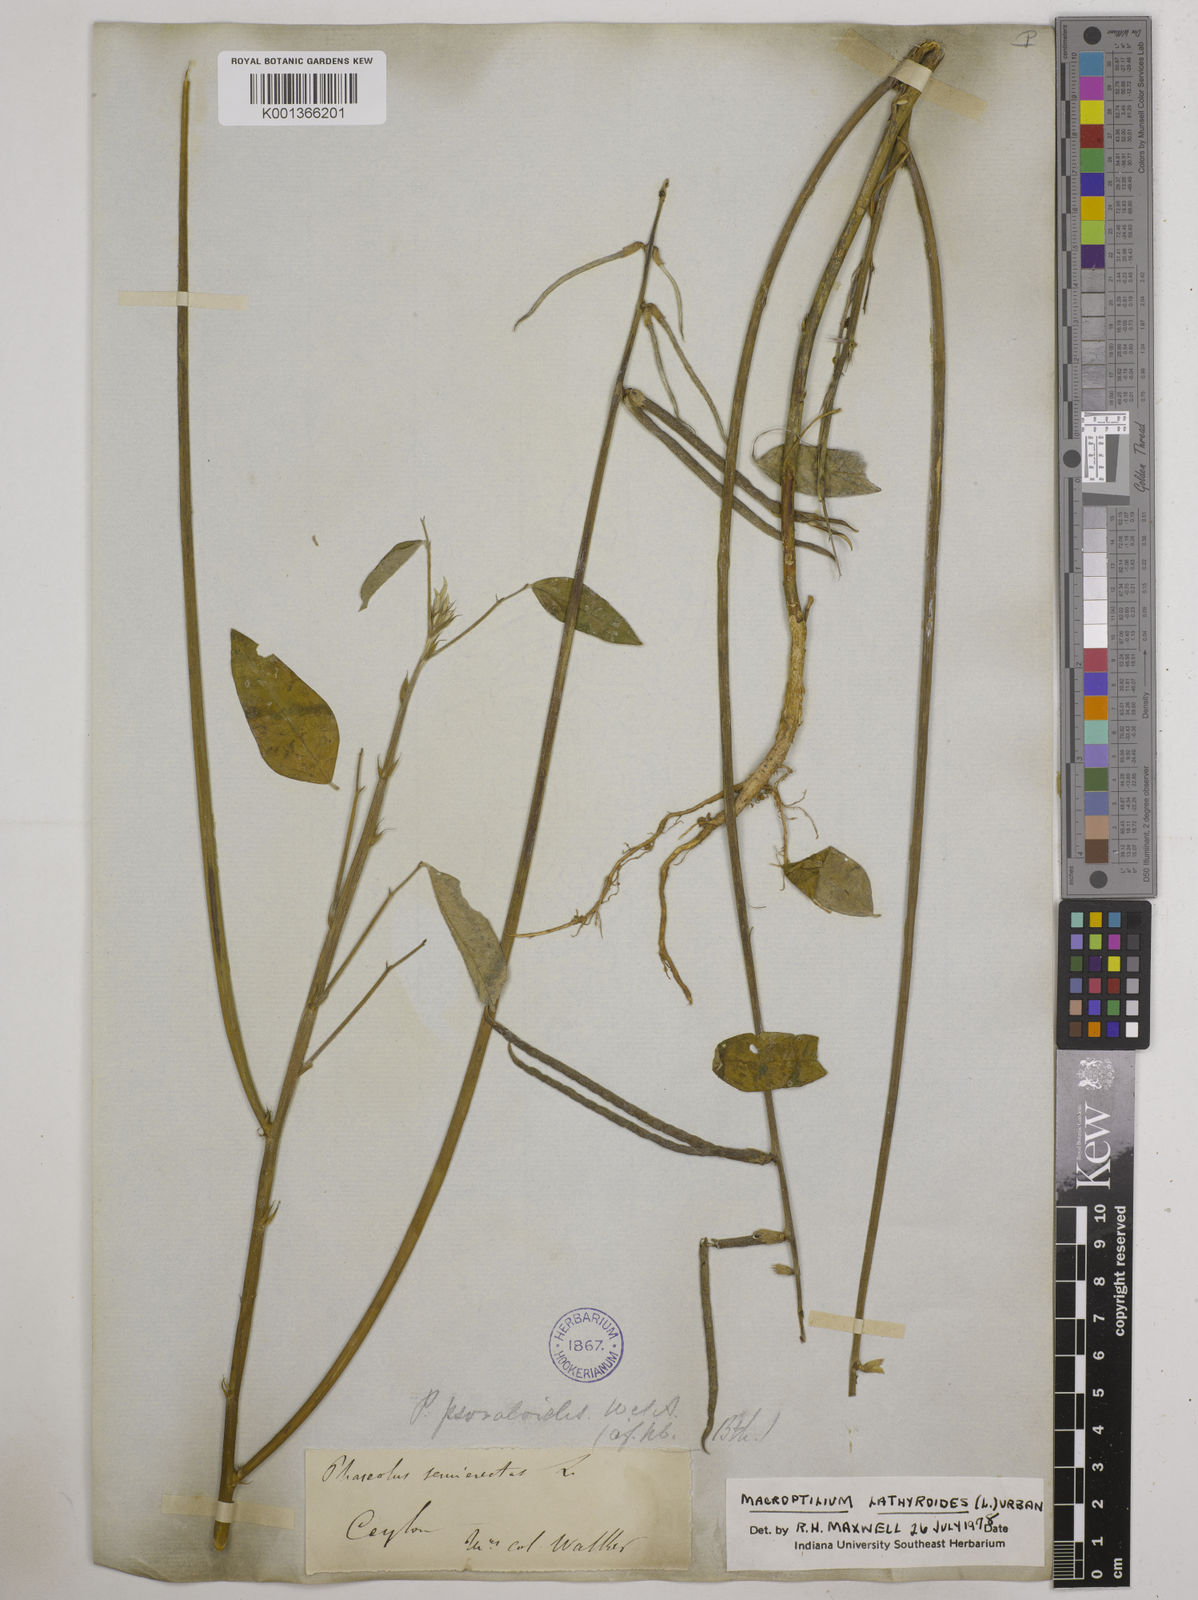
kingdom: Plantae
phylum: Tracheophyta
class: Magnoliopsida
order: Fabales
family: Fabaceae
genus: Macroptilium
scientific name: Macroptilium lathyroides
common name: Wild bushbean
